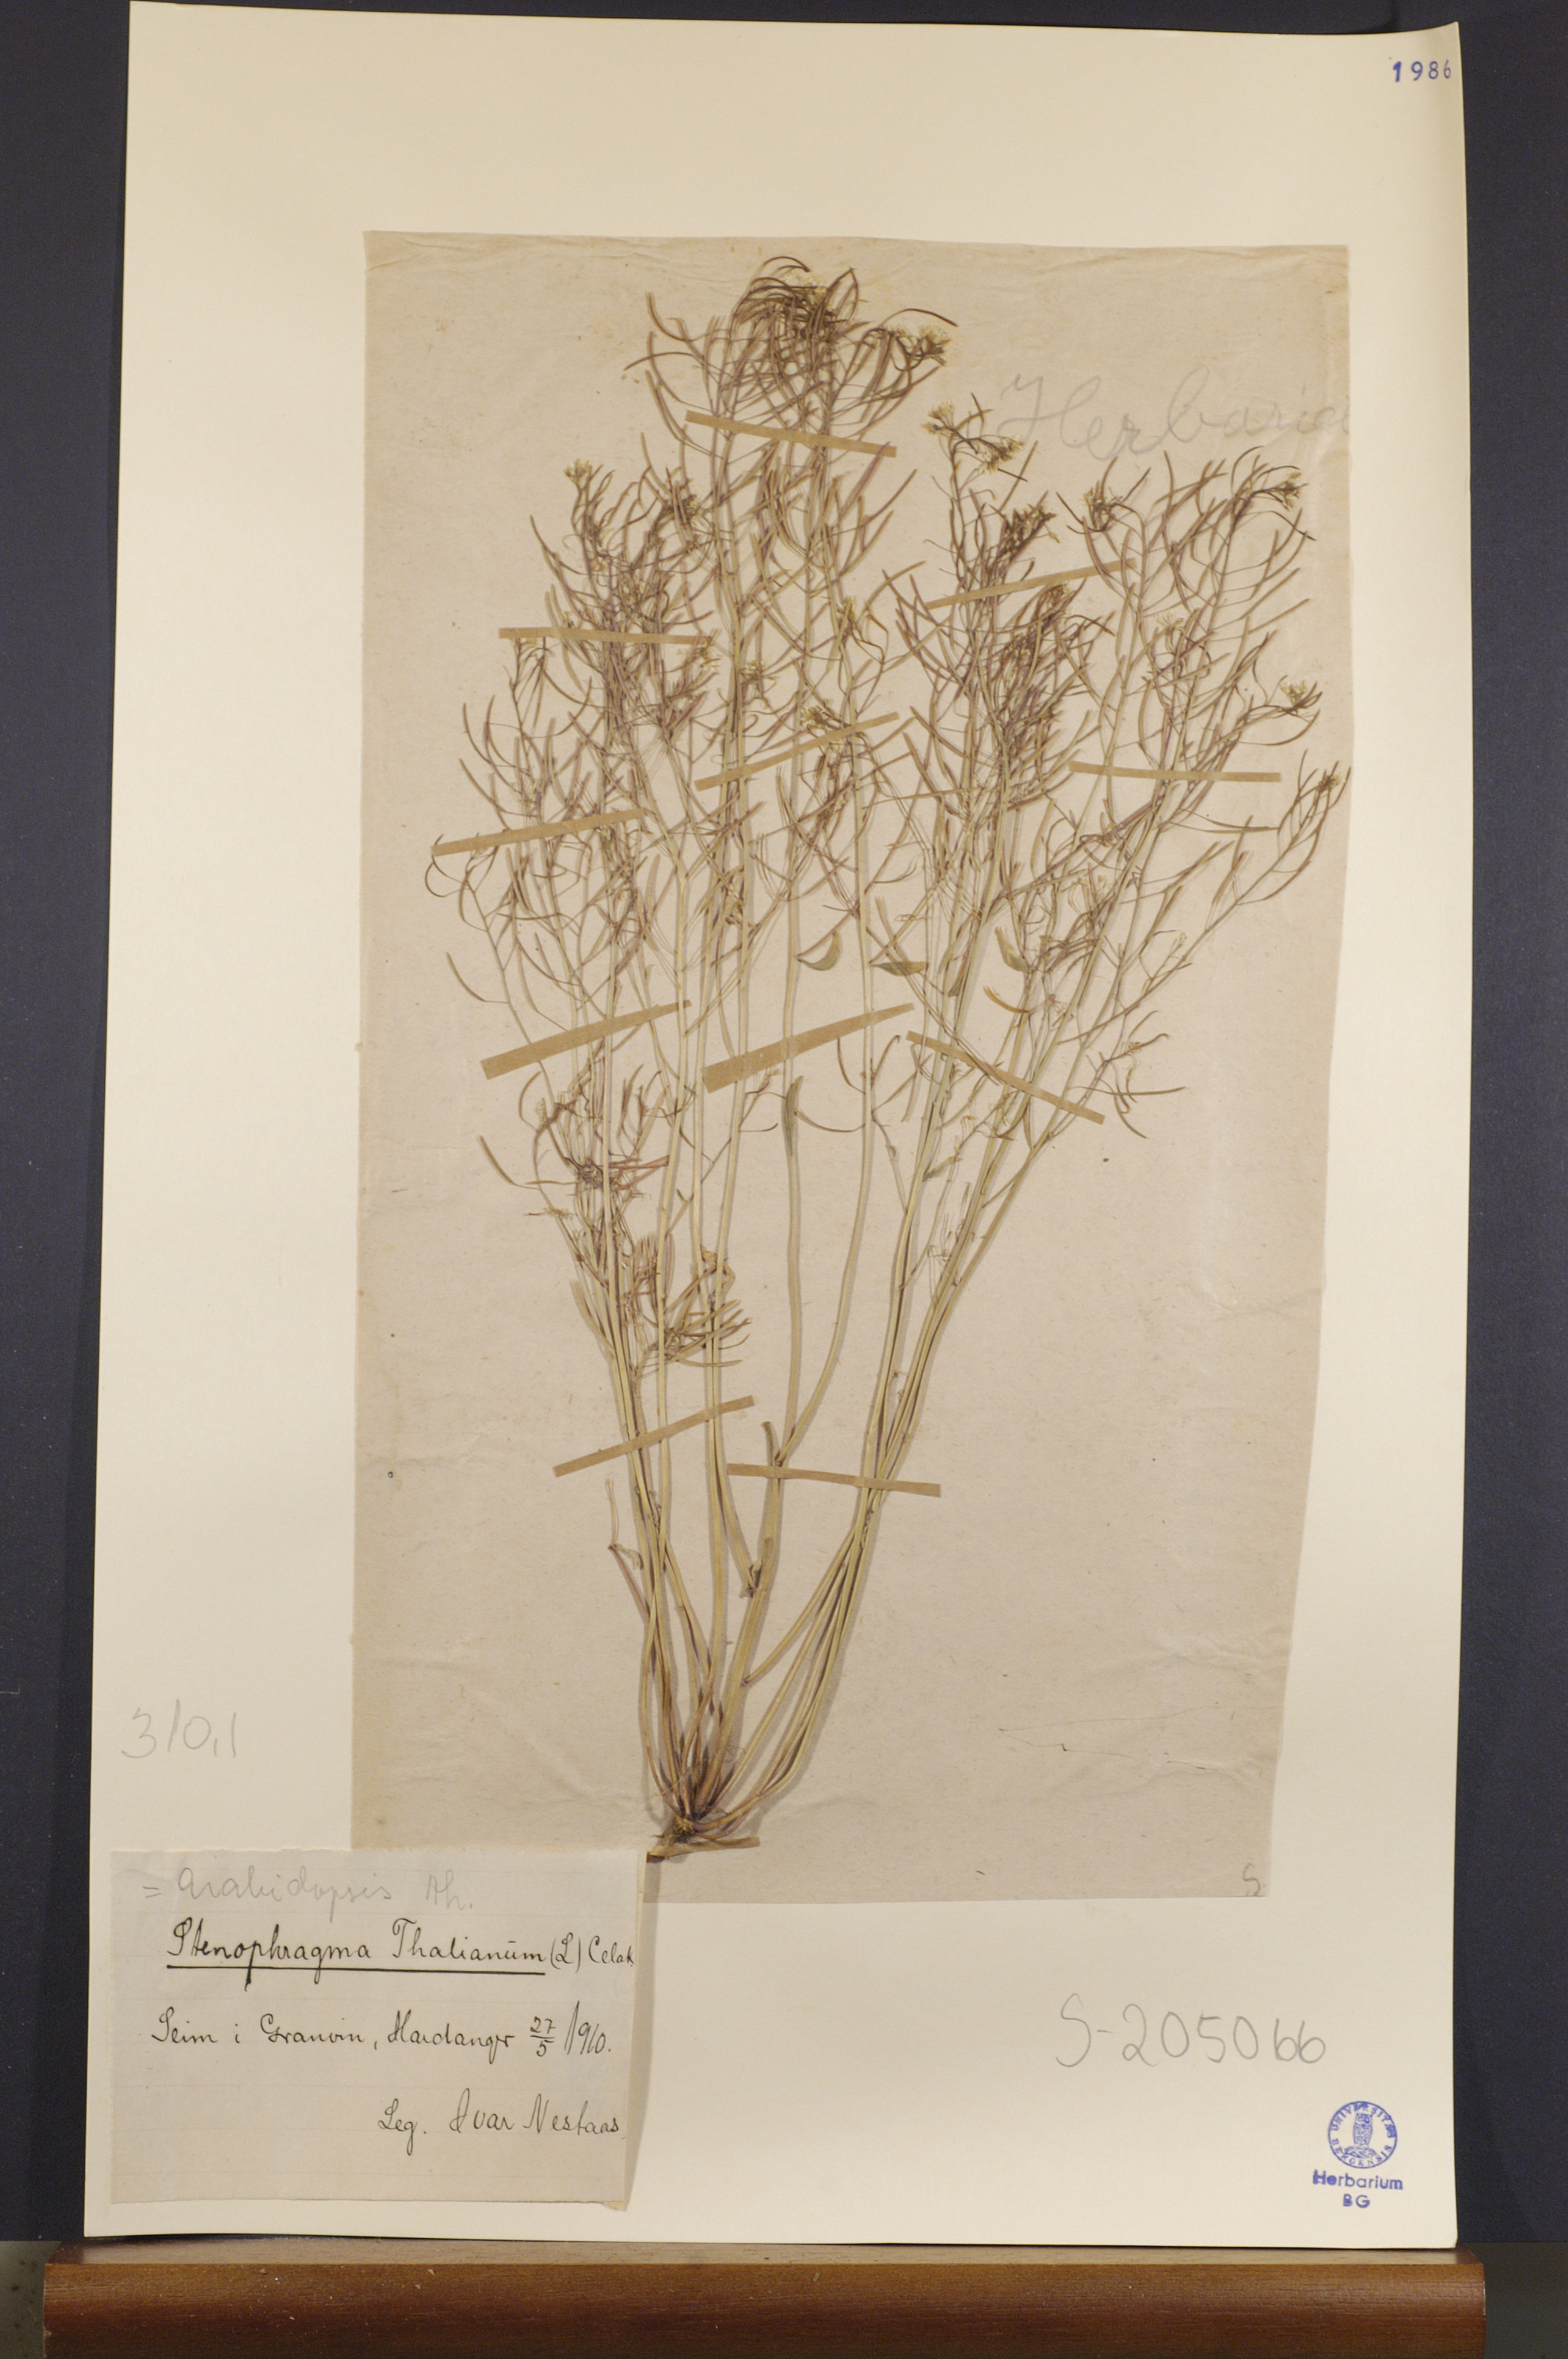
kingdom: Plantae
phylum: Tracheophyta
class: Magnoliopsida
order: Brassicales
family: Brassicaceae
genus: Arabidopsis
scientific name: Arabidopsis thaliana
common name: Thale cress
